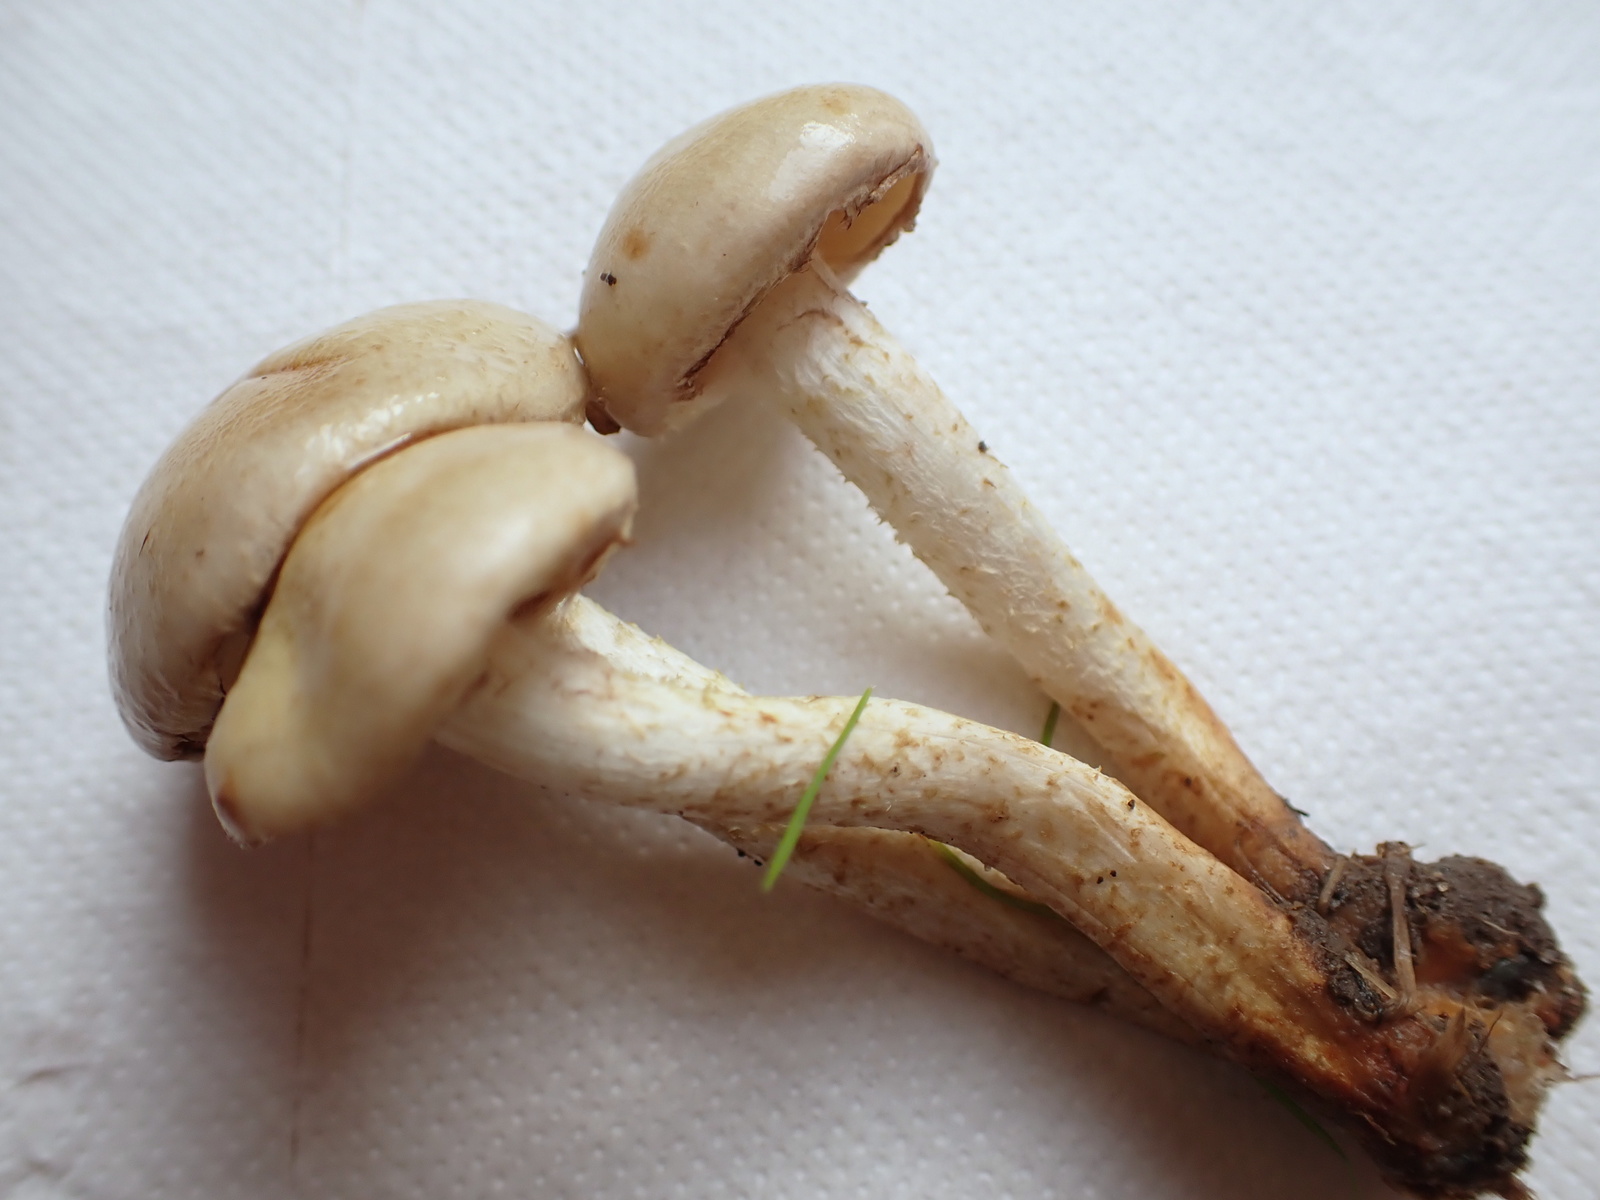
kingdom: Fungi
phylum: Basidiomycota
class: Agaricomycetes
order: Agaricales
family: Strophariaceae
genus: Pholiota
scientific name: Pholiota lenta
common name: løv-skælhat
